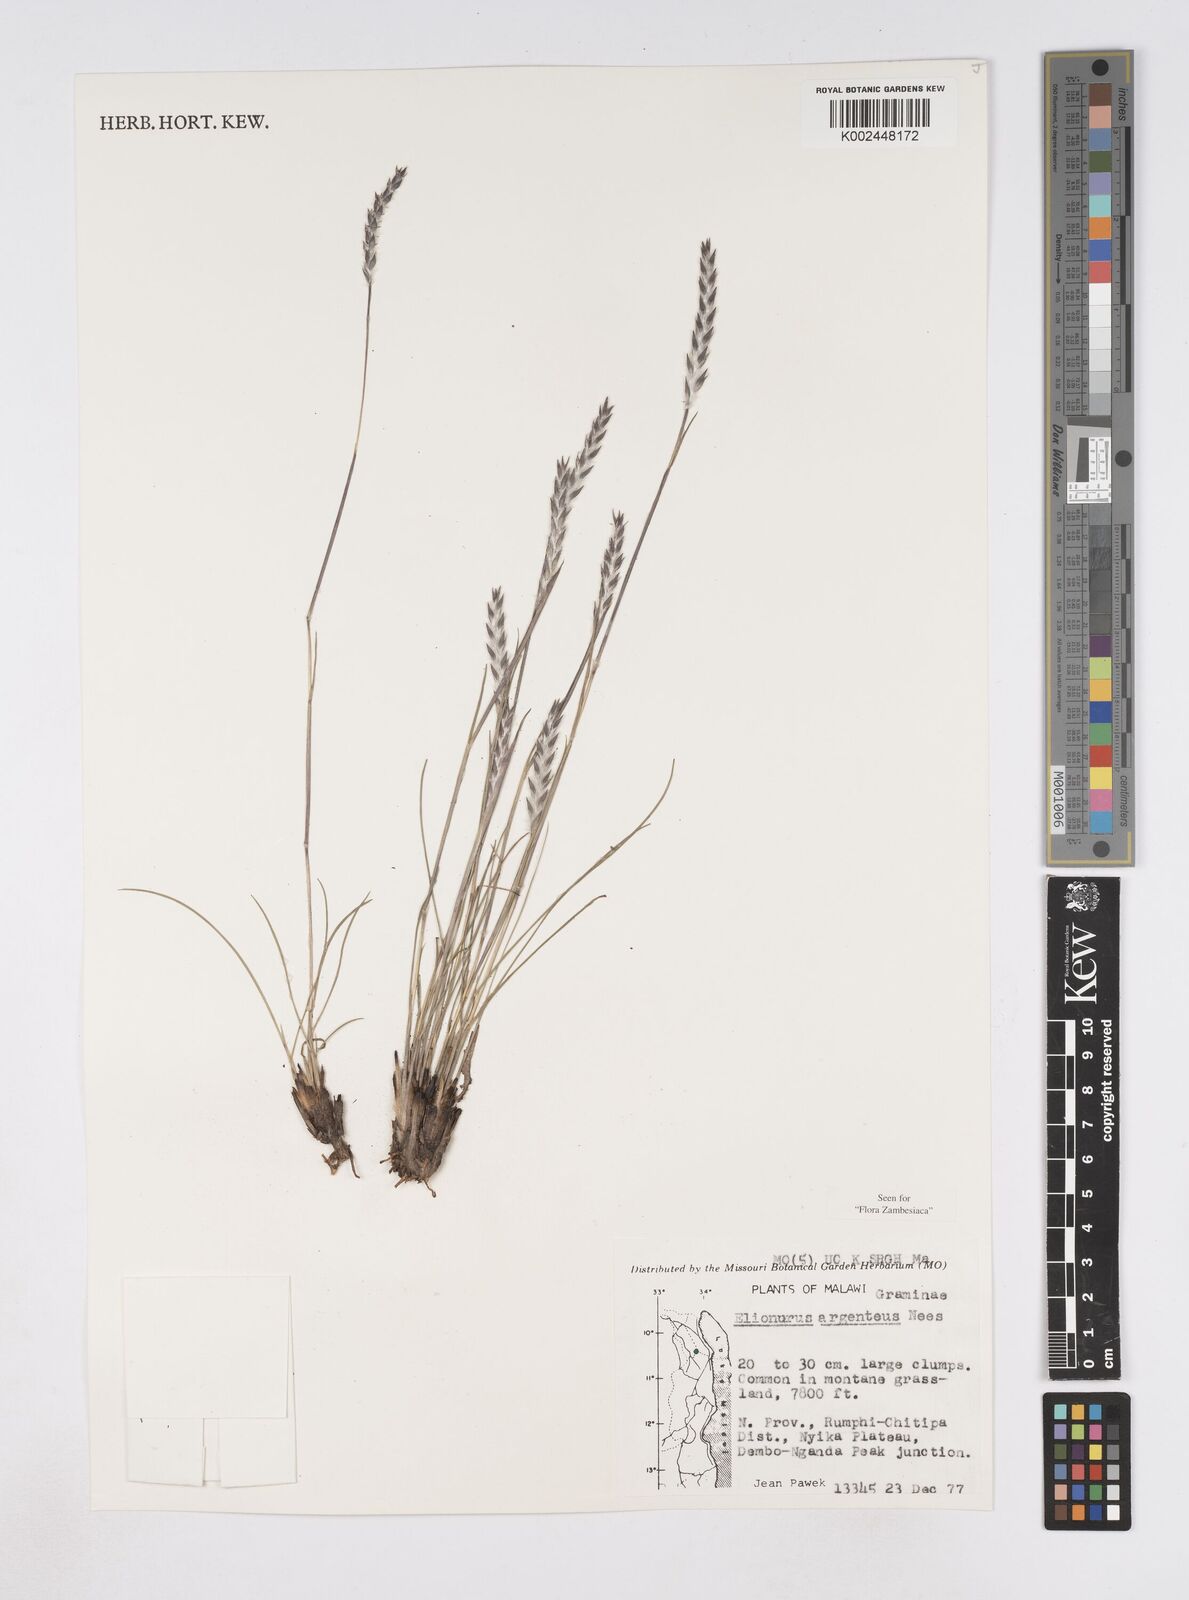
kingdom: Plantae
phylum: Tracheophyta
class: Liliopsida
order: Poales
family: Poaceae
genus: Elionurus
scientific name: Elionurus muticus
